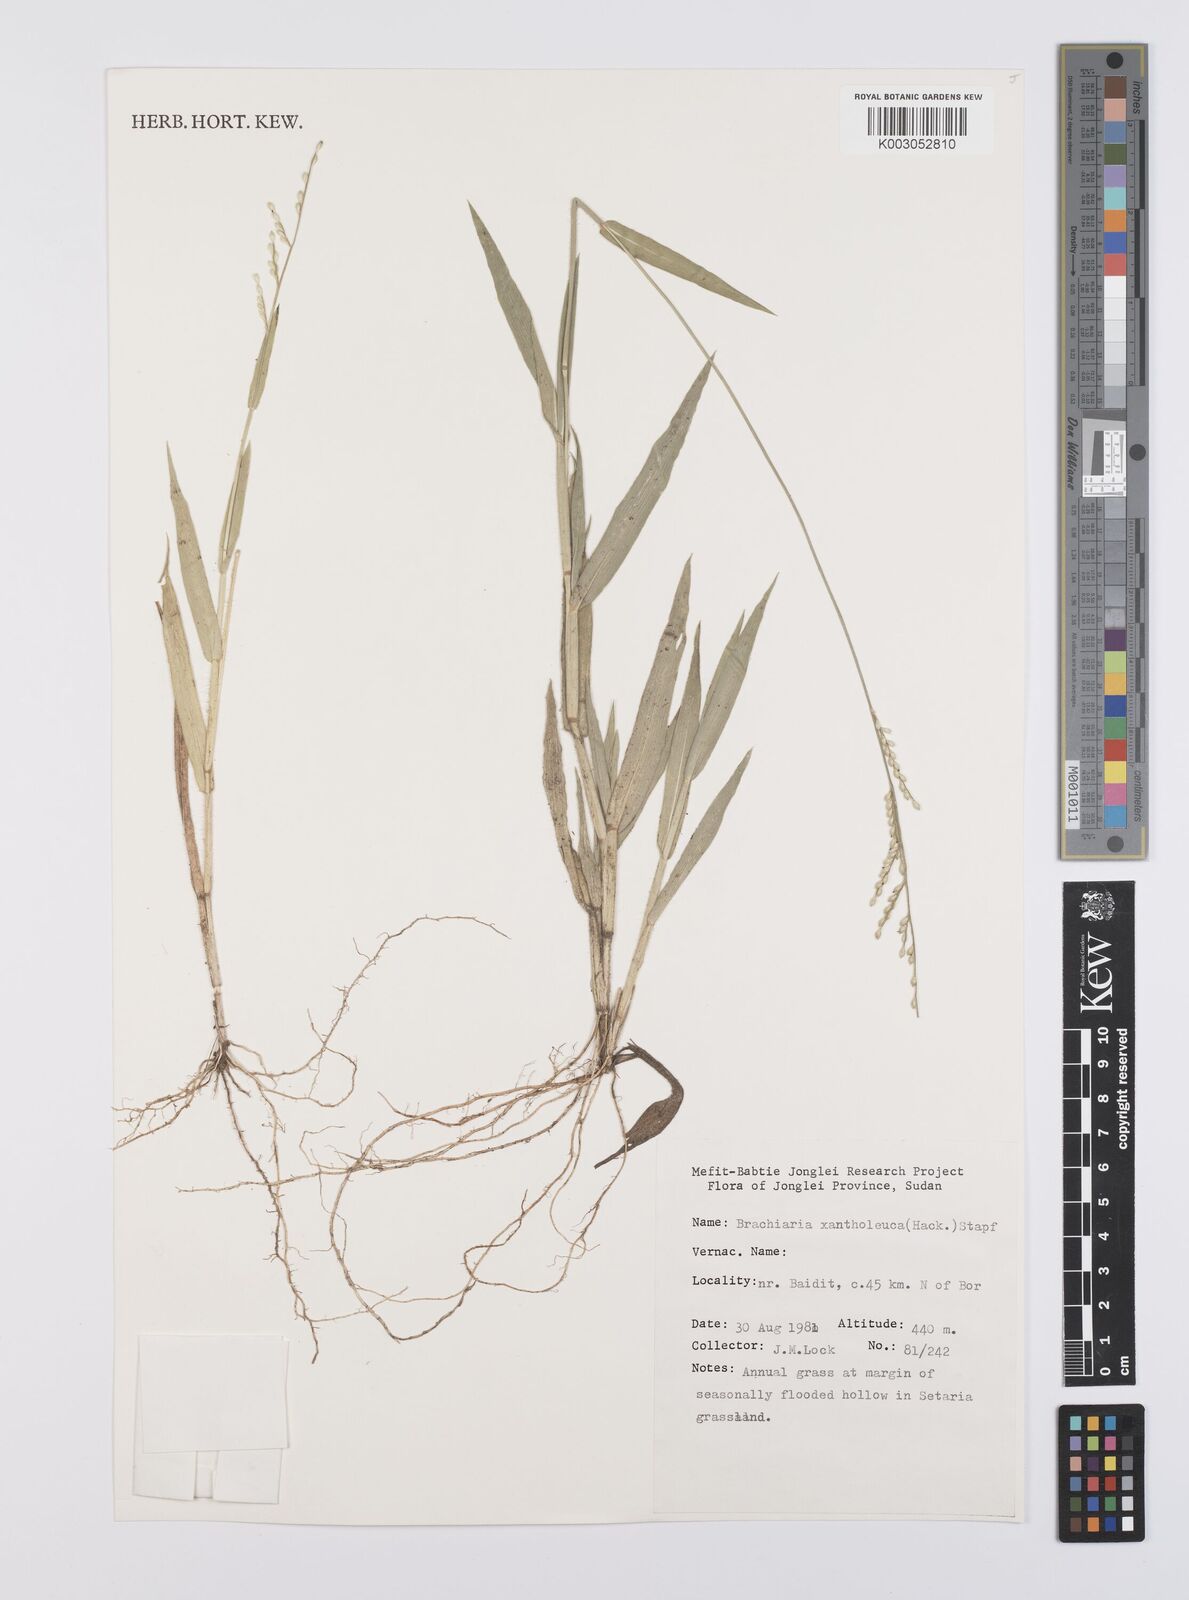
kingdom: Plantae
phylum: Tracheophyta
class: Liliopsida
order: Poales
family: Poaceae
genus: Urochloa
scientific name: Urochloa xantholeuca
